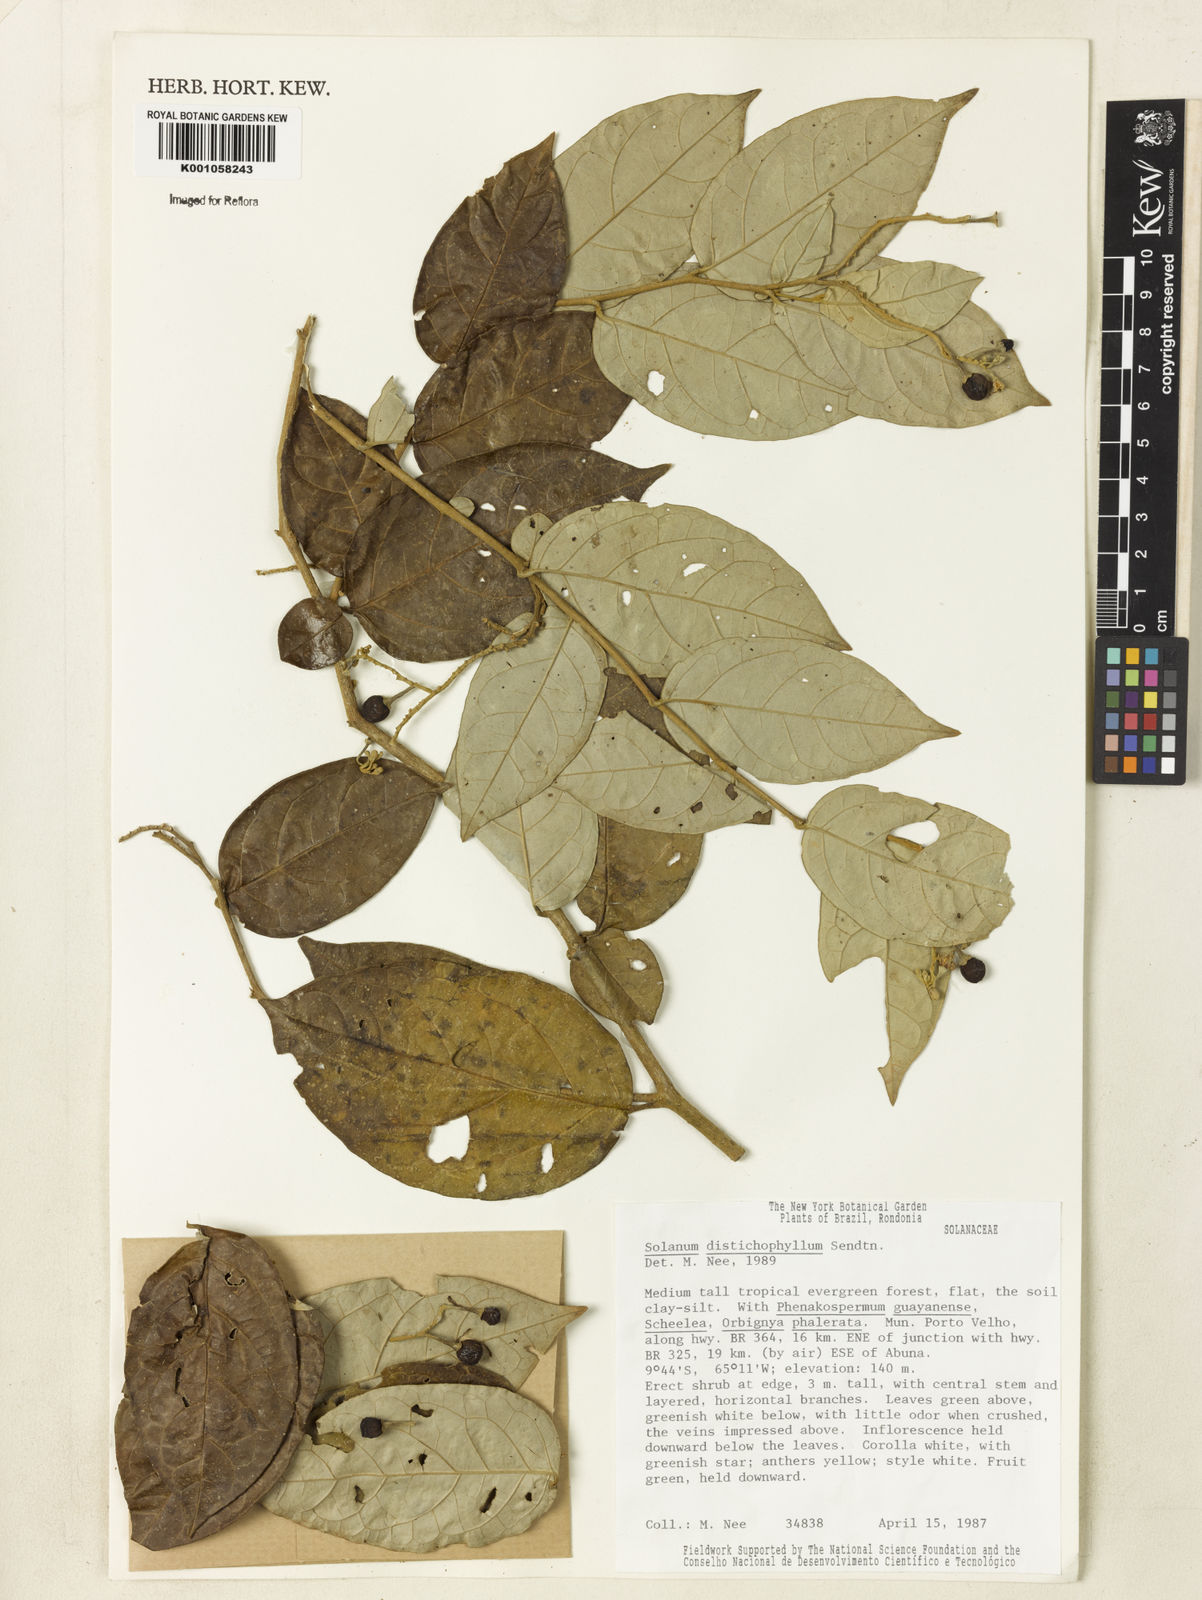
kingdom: Plantae
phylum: Tracheophyta
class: Magnoliopsida
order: Solanales
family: Solanaceae
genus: Solanum
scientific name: Solanum distichophyllum
